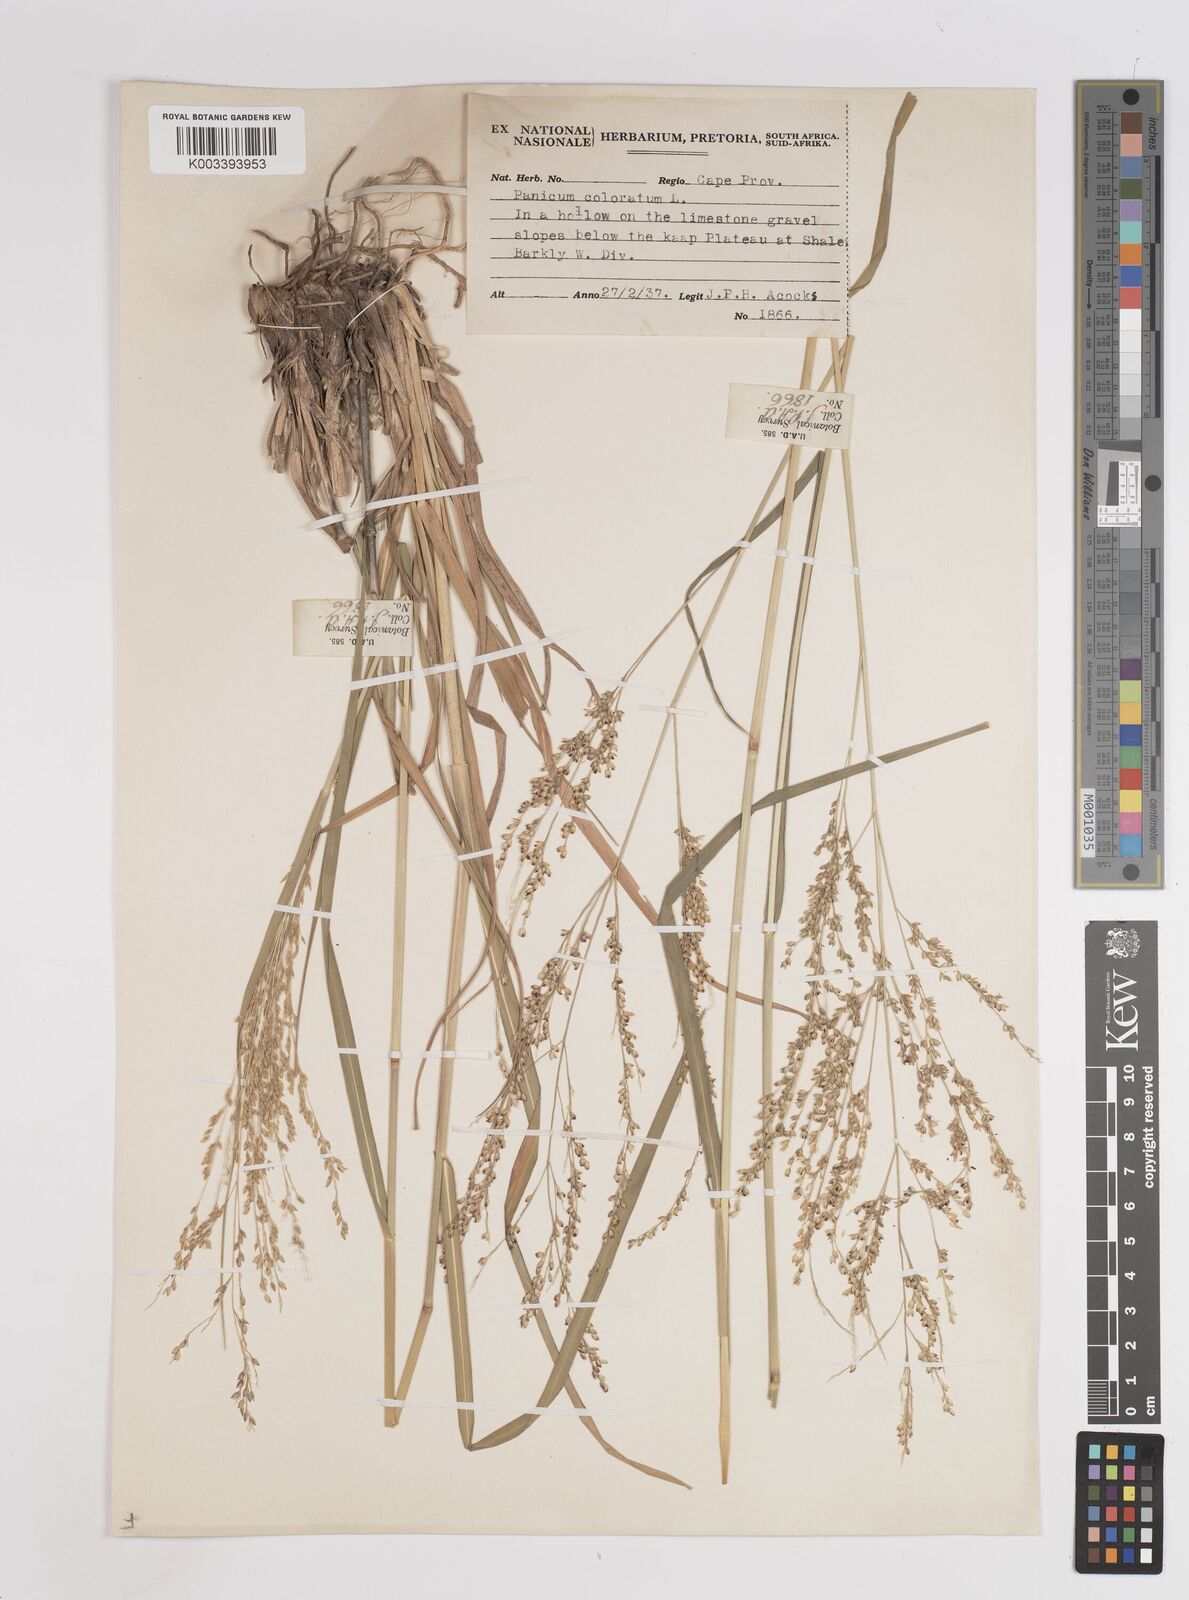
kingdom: Plantae
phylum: Tracheophyta
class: Liliopsida
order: Poales
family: Poaceae
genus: Panicum
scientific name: Panicum coloratum
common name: Kleingrass
